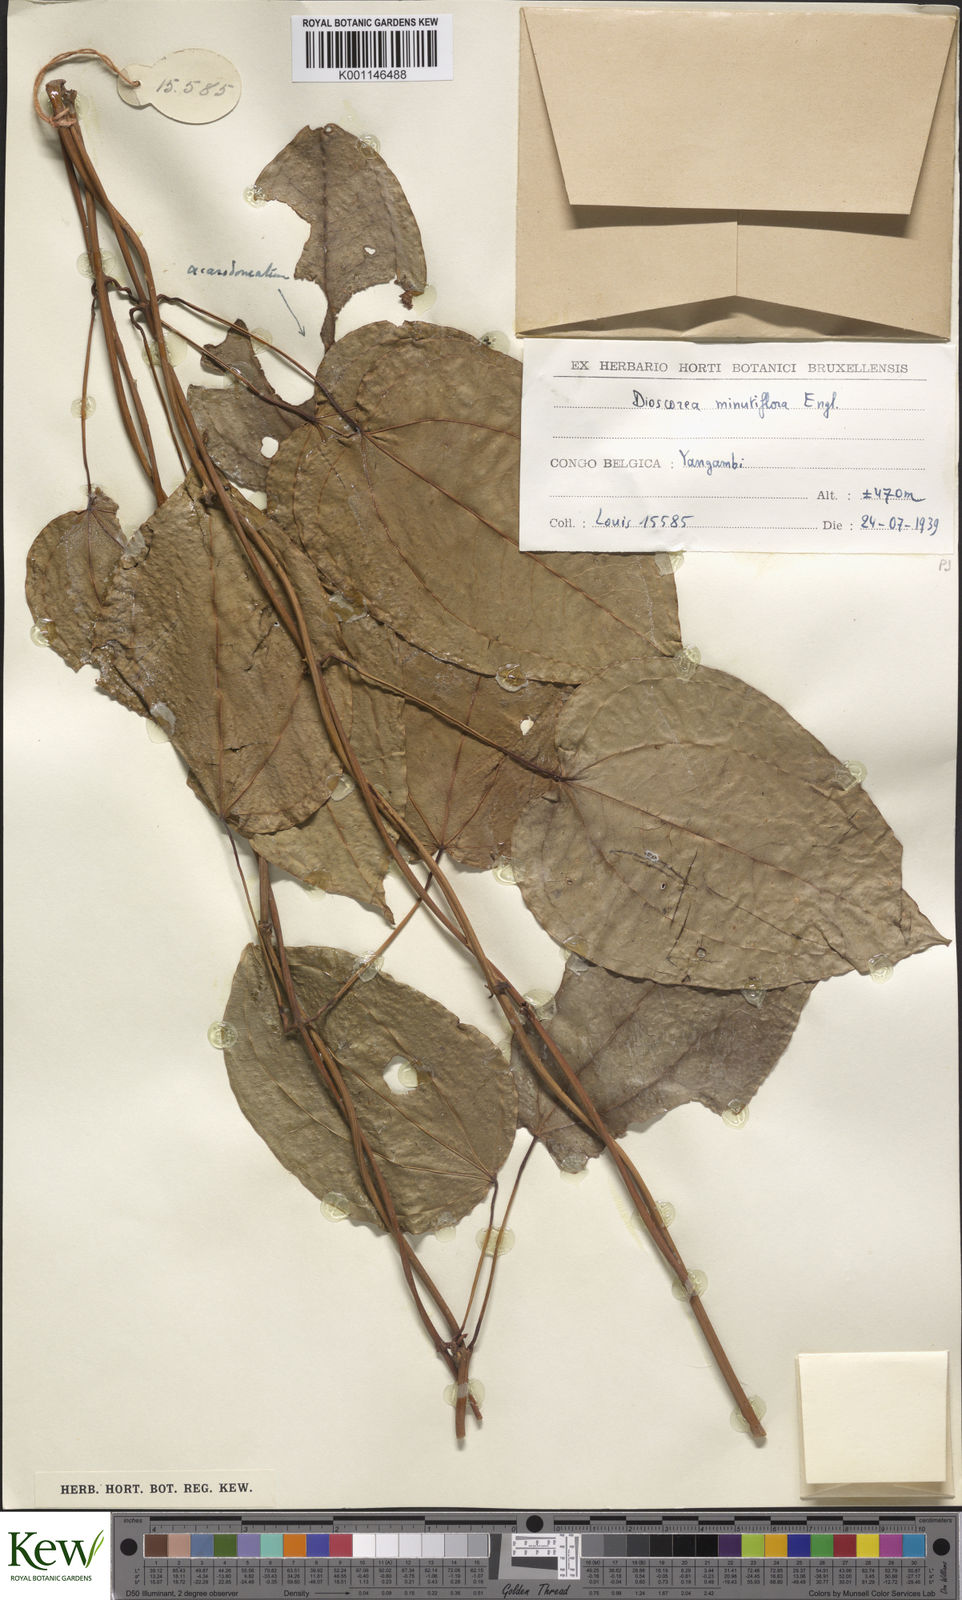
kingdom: Plantae
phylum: Tracheophyta
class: Liliopsida
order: Dioscoreales
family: Dioscoreaceae
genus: Dioscorea
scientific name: Dioscorea minutiflora
